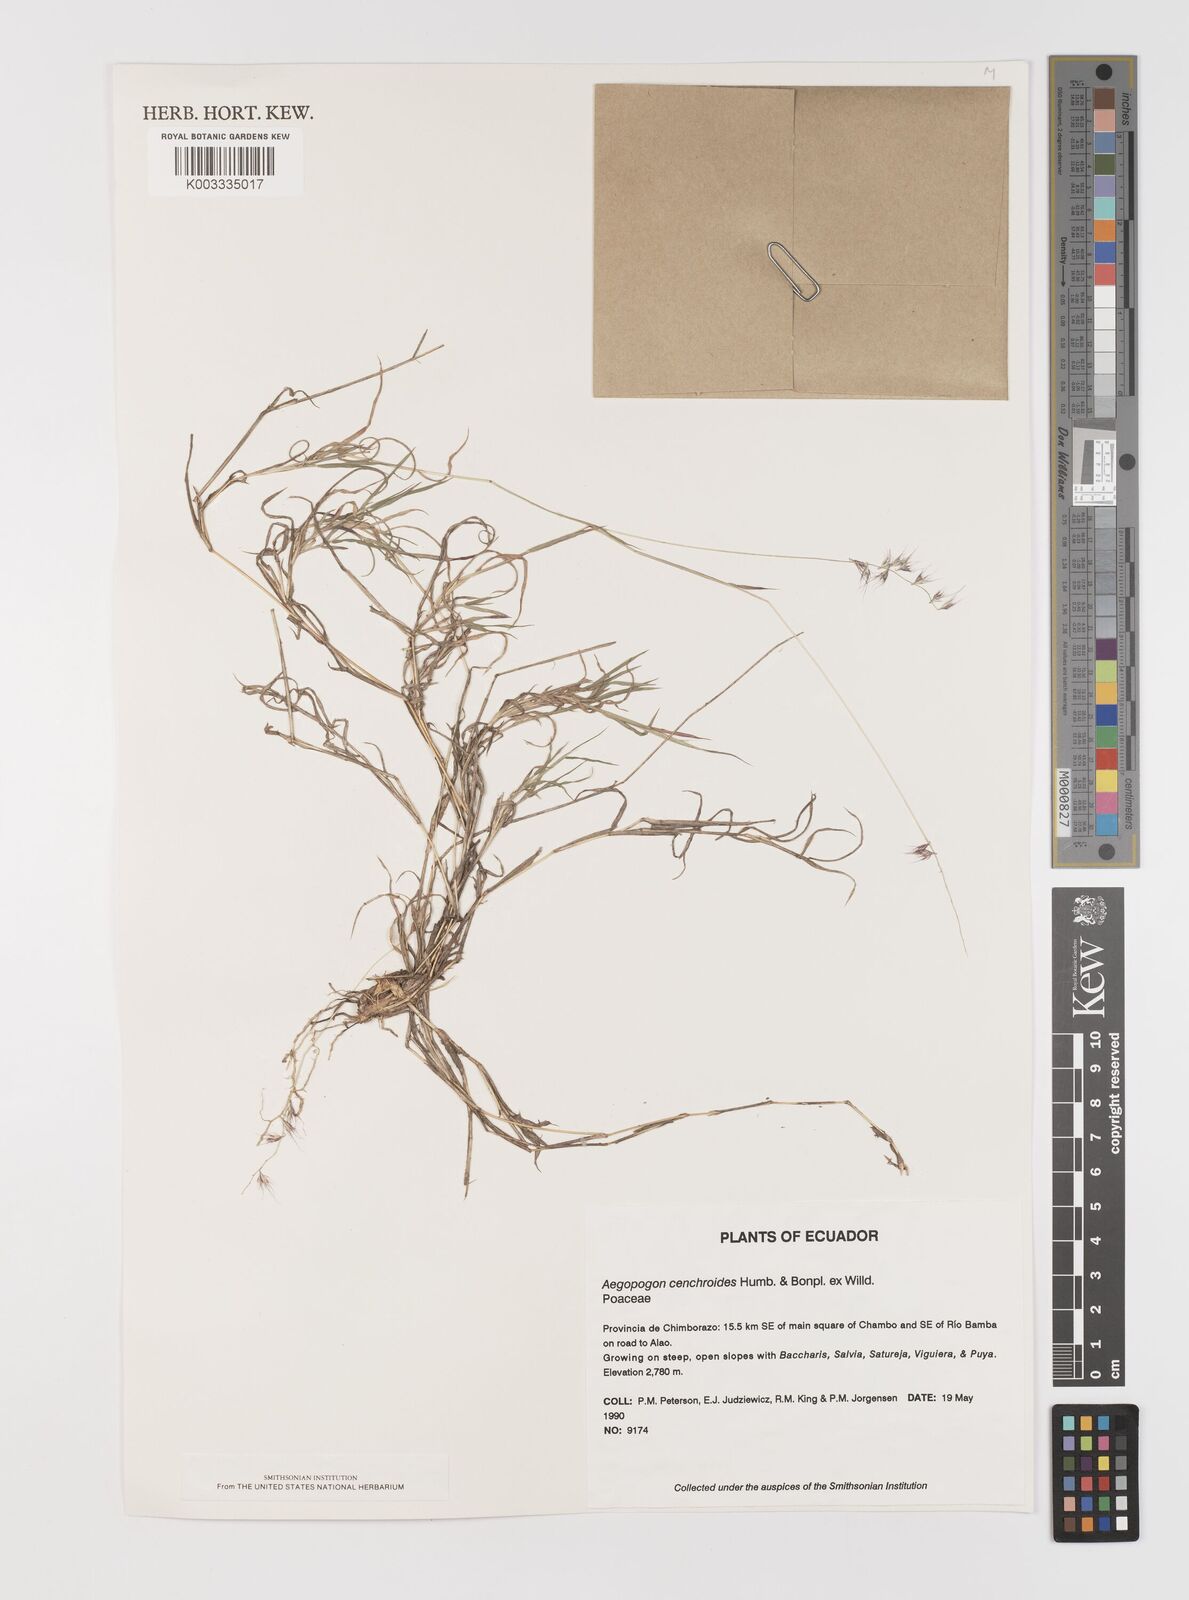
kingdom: Plantae
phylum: Tracheophyta
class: Liliopsida
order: Poales
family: Poaceae
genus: Muhlenbergia
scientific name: Muhlenbergia cenchroides
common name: Relaxgrass
